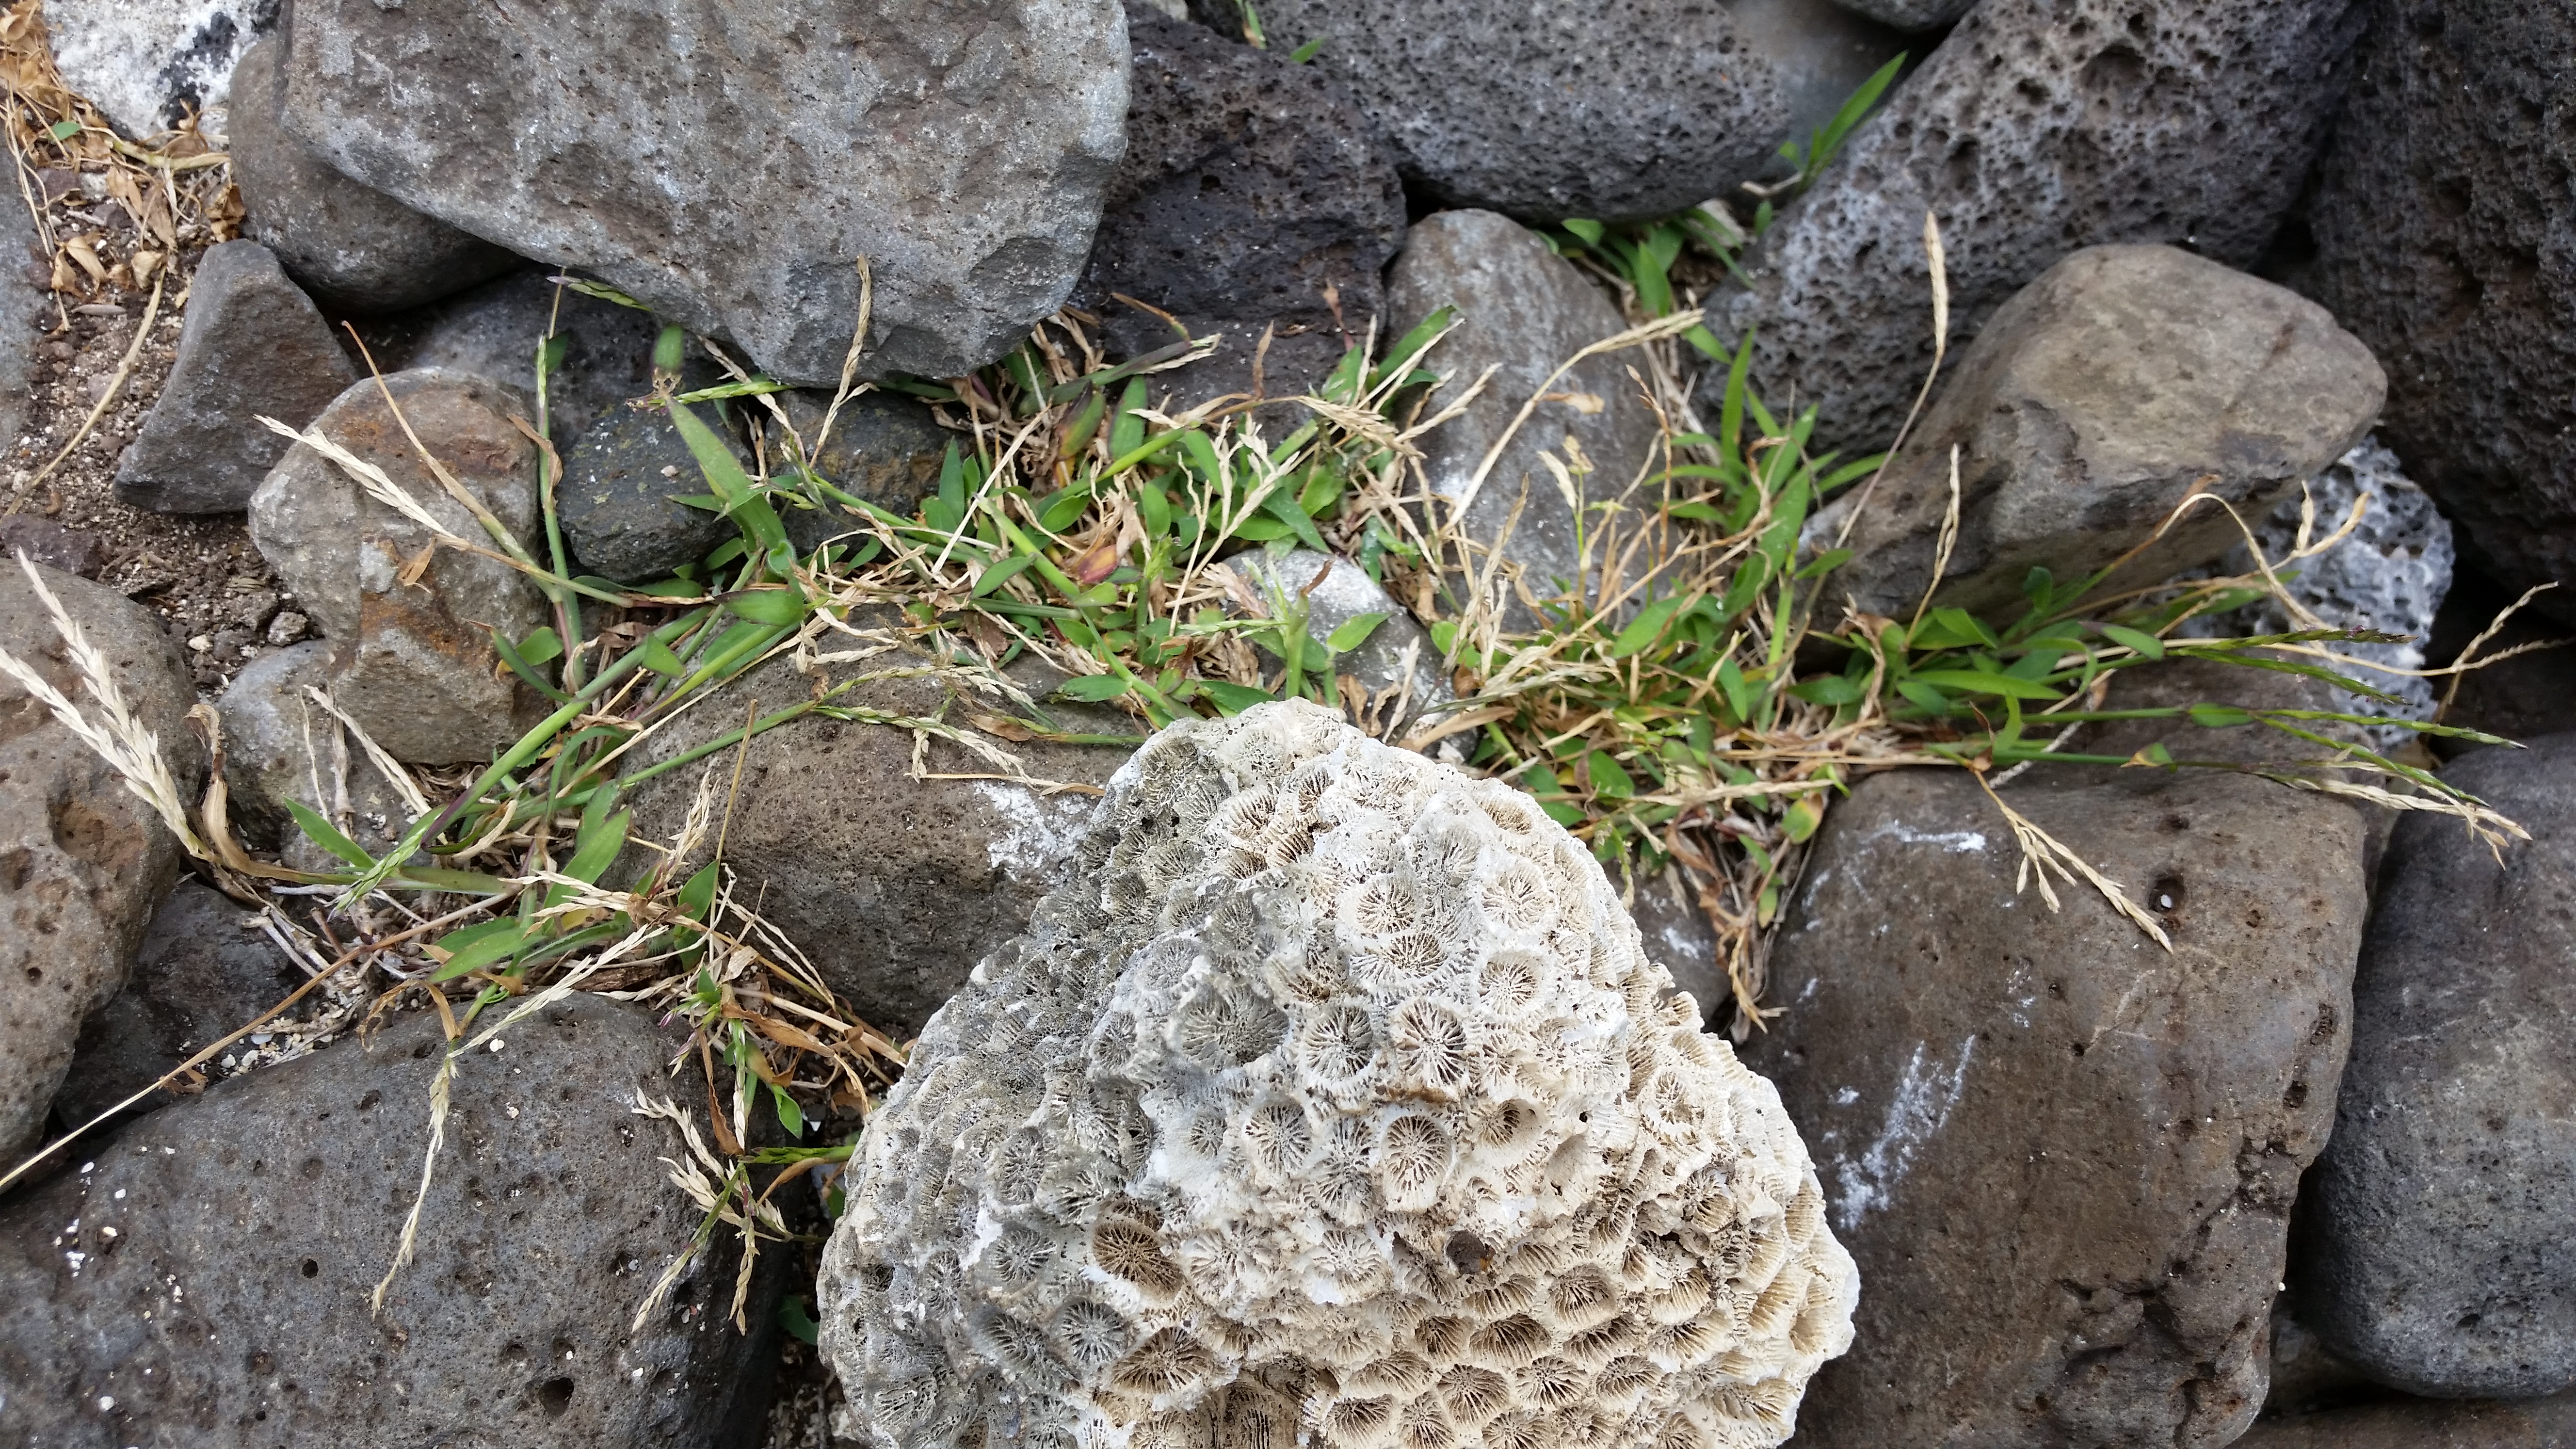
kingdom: Plantae
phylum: Tracheophyta
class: Liliopsida
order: Poales
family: Poaceae
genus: Digitaria
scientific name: Digitaria ciliaris
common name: Tropical finger-grass
